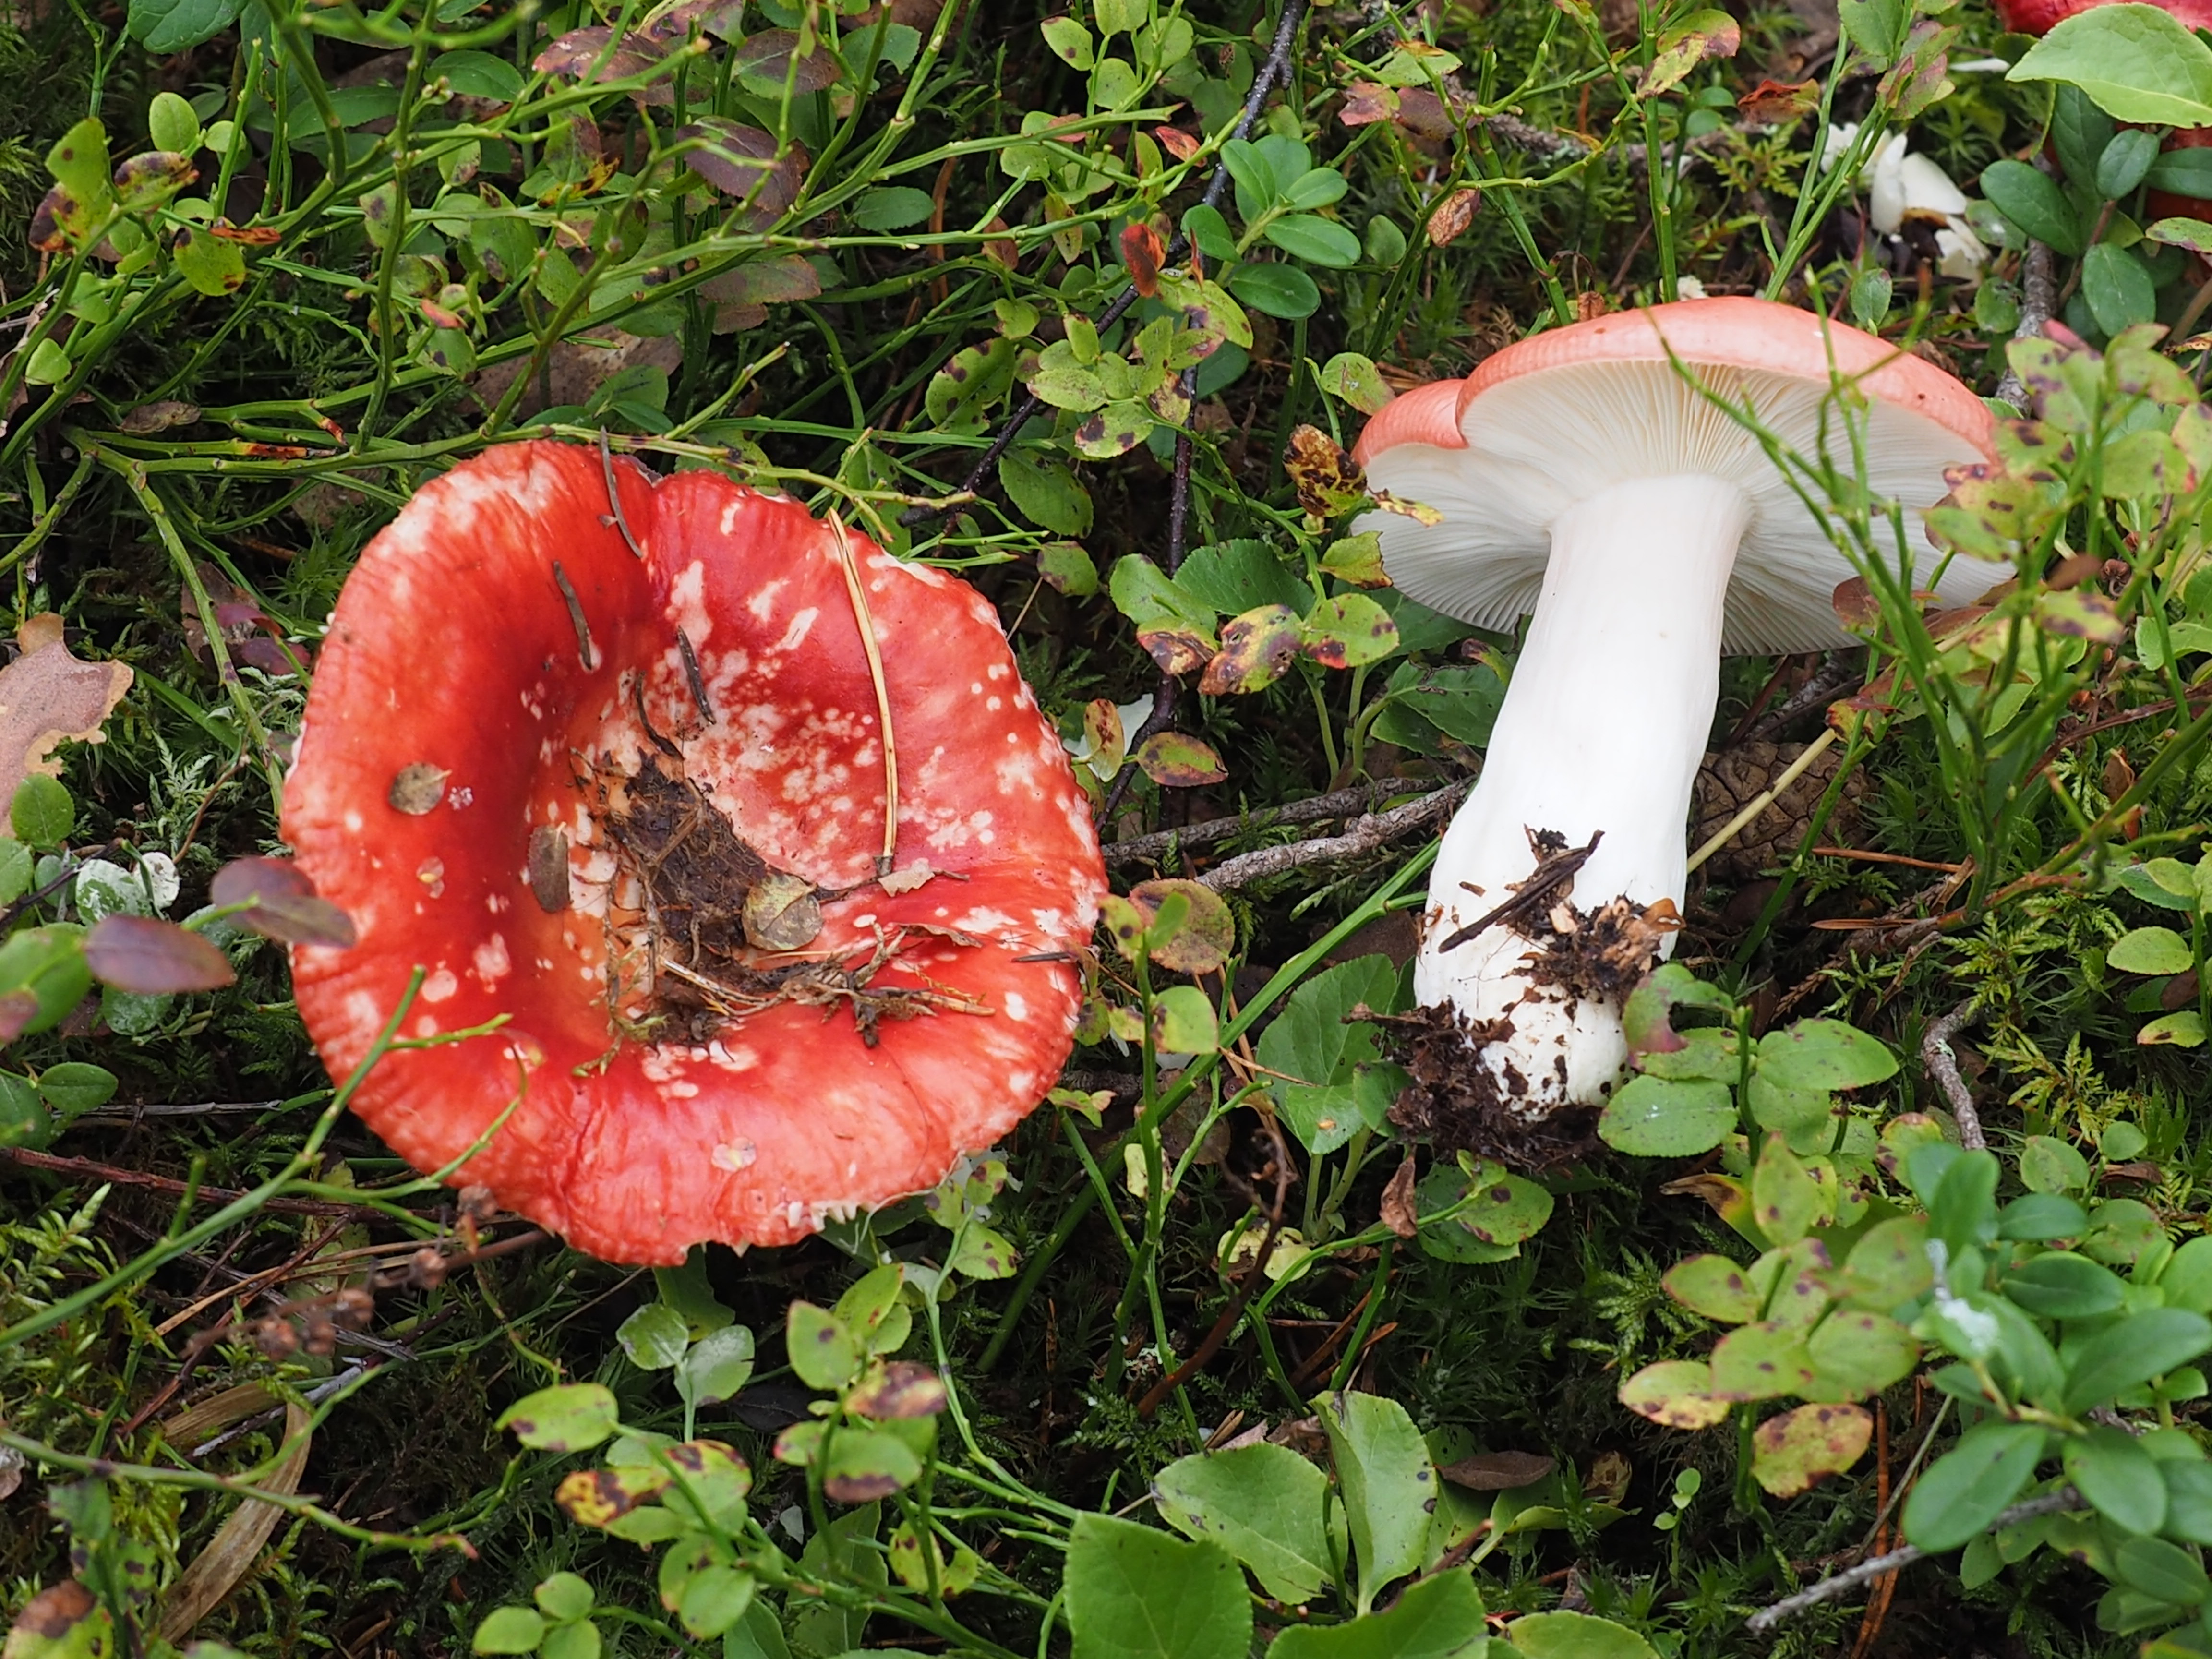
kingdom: Fungi
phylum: Basidiomycota
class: Agaricomycetes
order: Russulales
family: Russulaceae
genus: Russula
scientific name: Russula rhodopus
